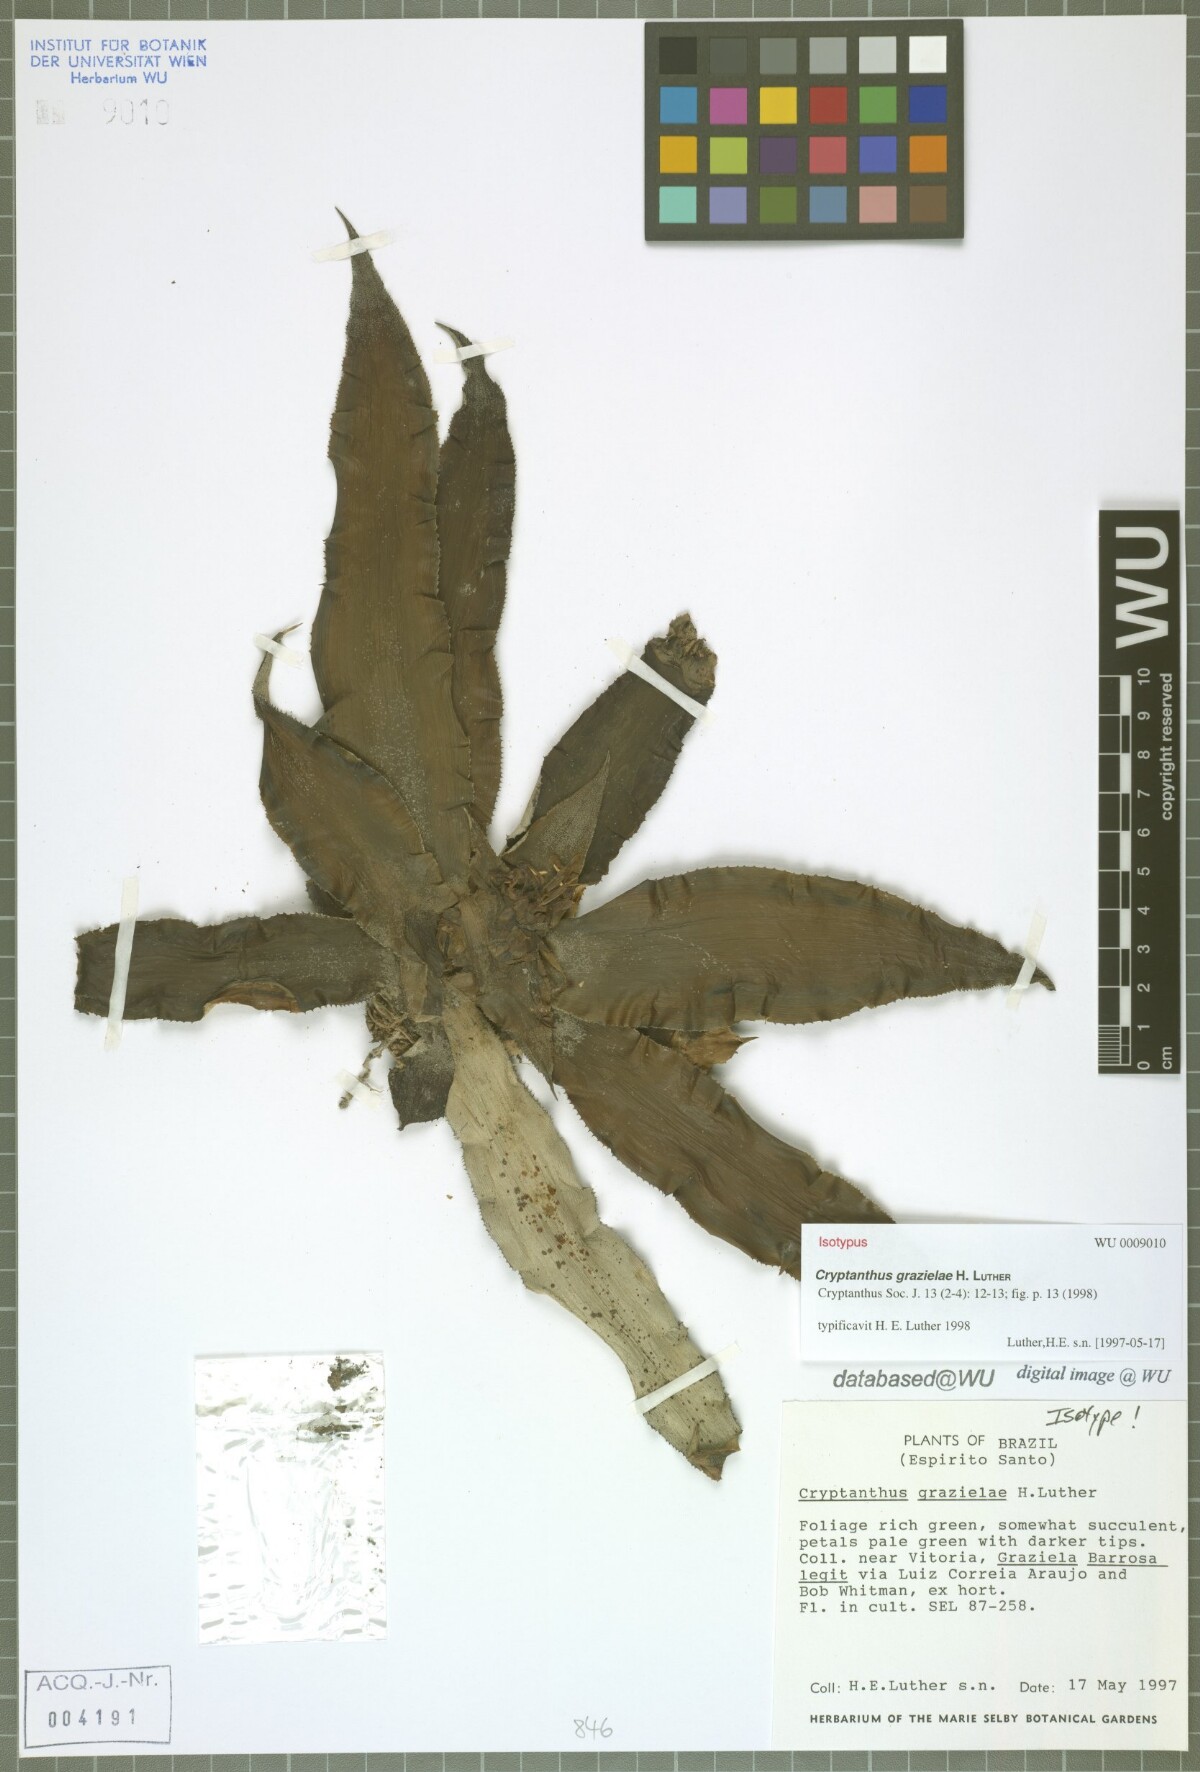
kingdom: Plantae
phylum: Tracheophyta
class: Liliopsida
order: Poales
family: Bromeliaceae
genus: Cryptanthus
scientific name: Cryptanthus grazielae
